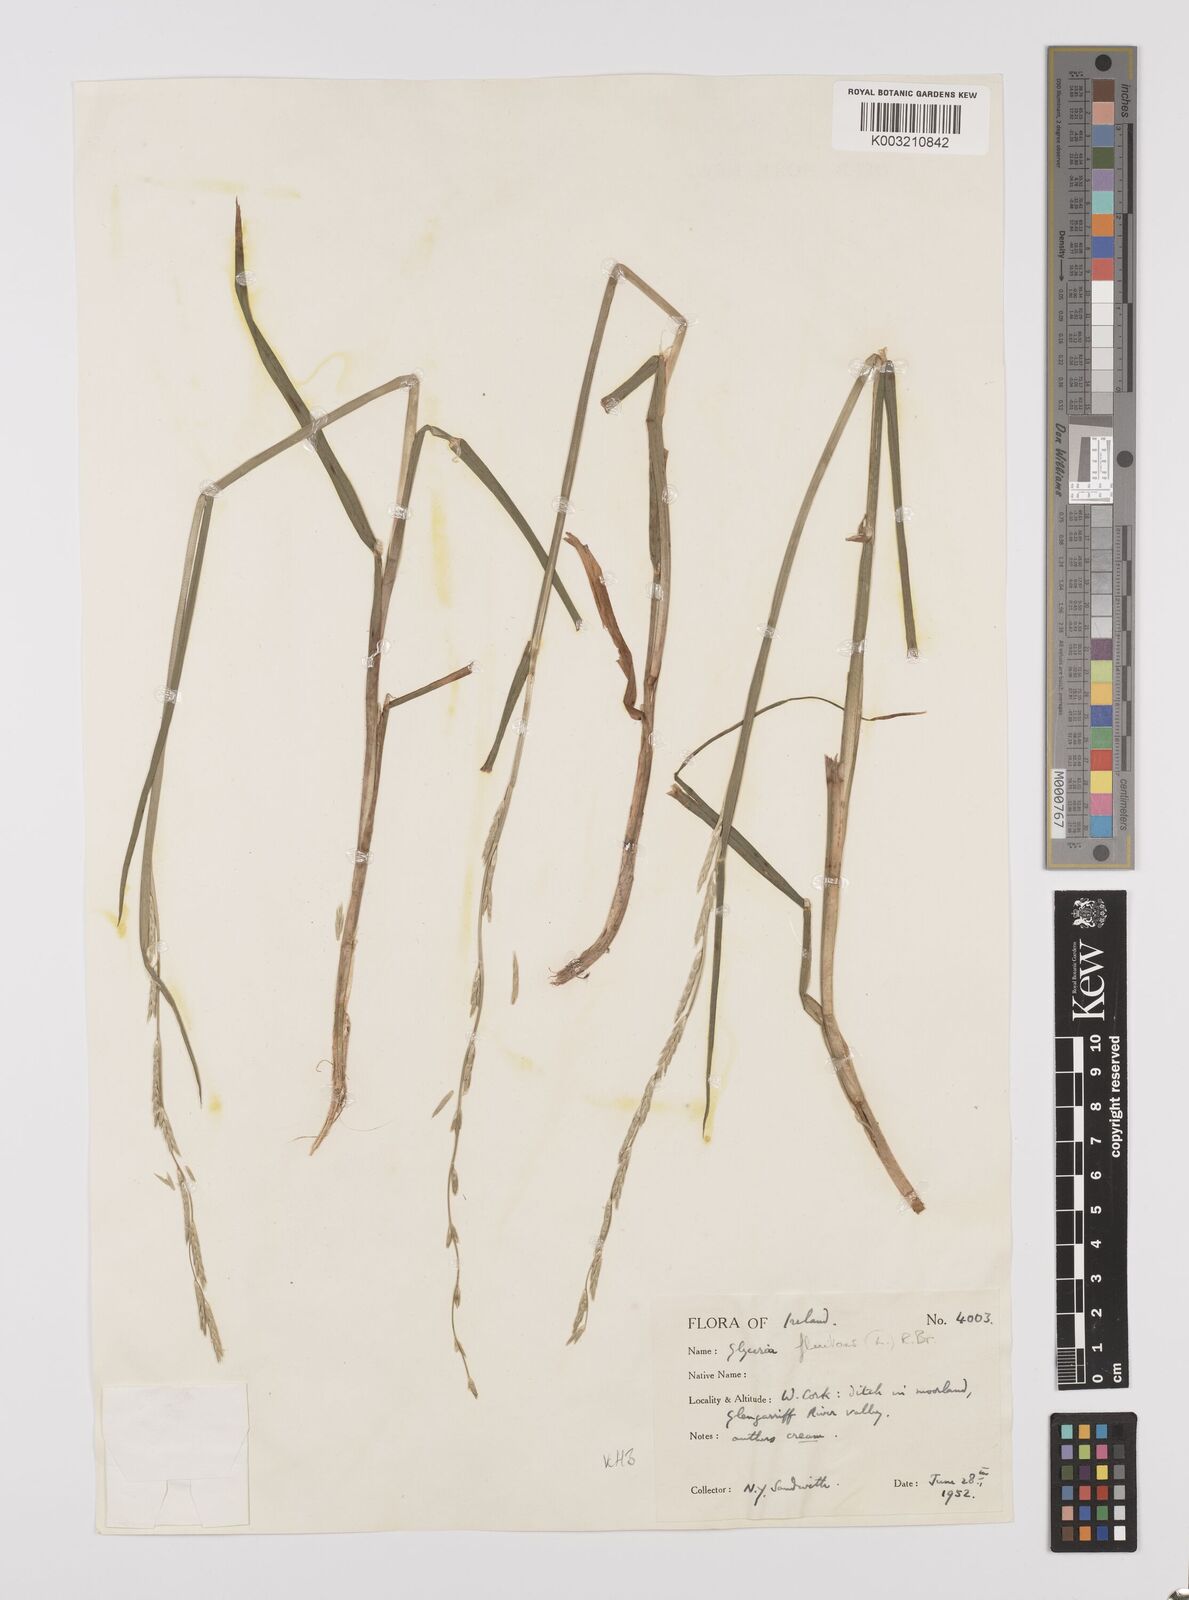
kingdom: Plantae
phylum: Tracheophyta
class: Liliopsida
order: Poales
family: Poaceae
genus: Glyceria
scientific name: Glyceria fluitans
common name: Floating sweet-grass
